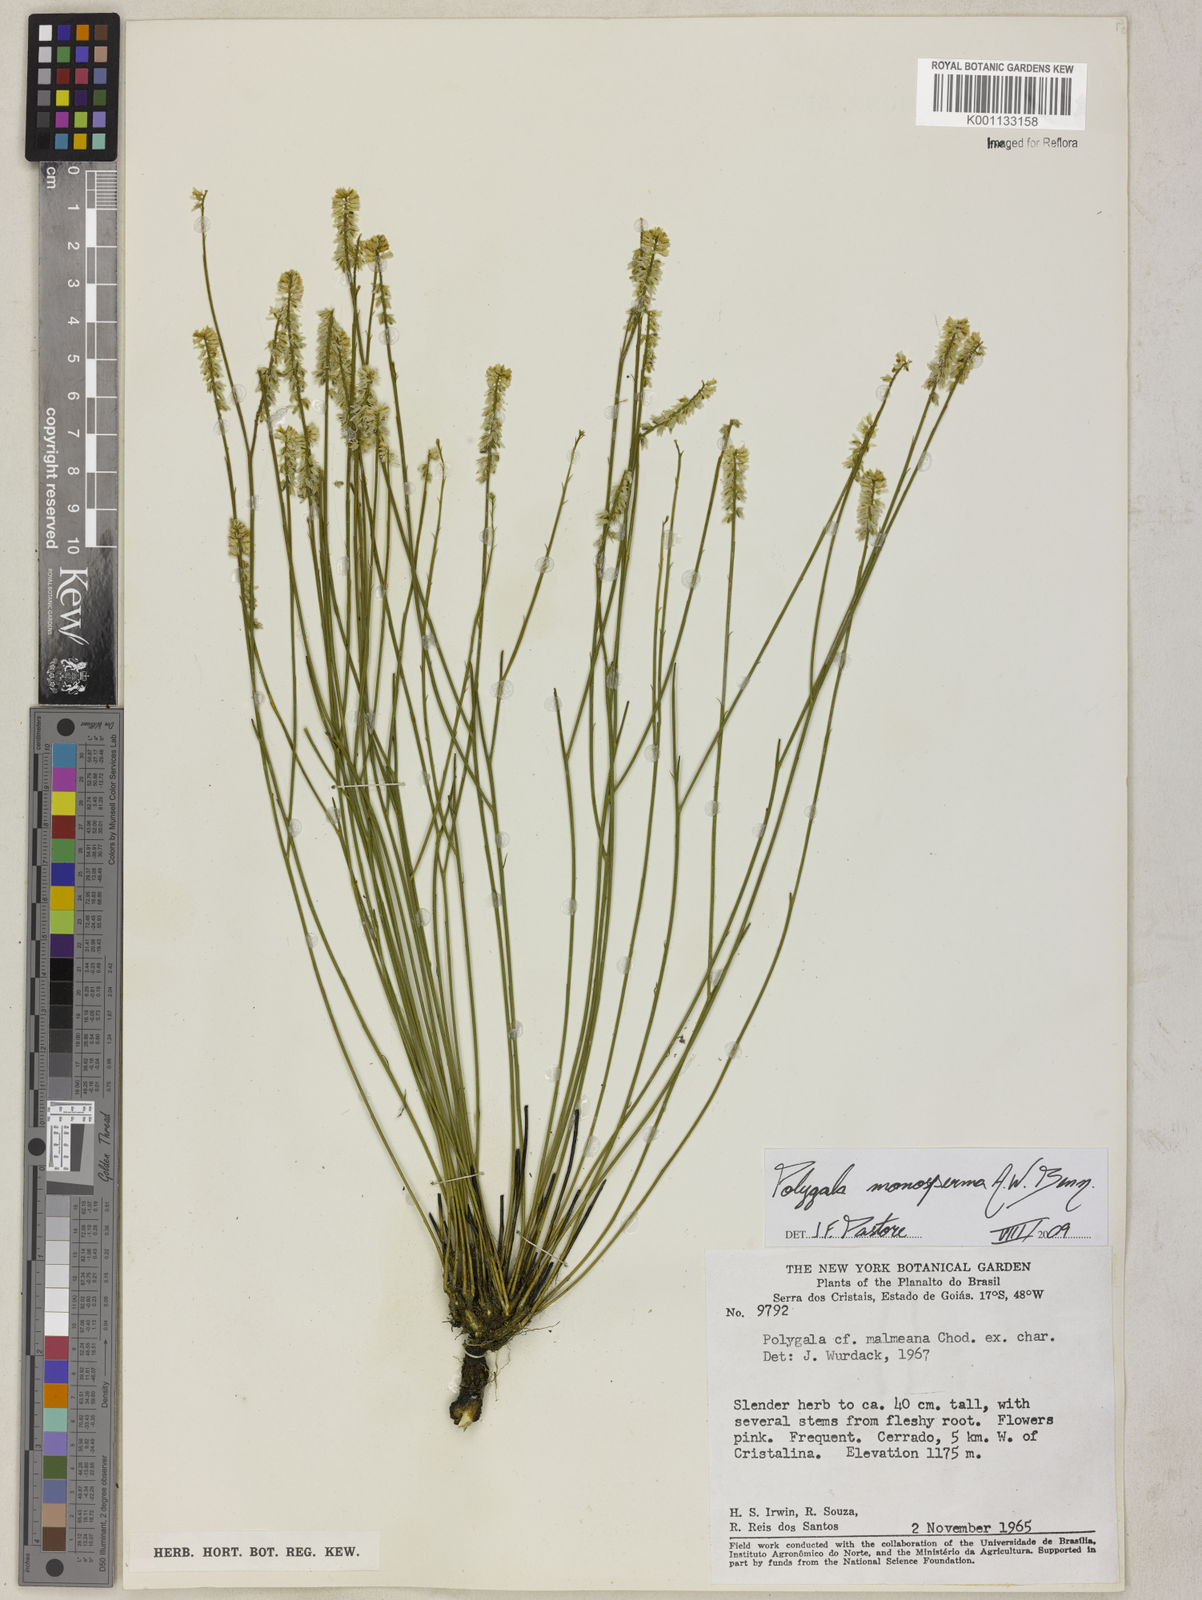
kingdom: Plantae
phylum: Tracheophyta
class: Magnoliopsida
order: Fabales
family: Polygalaceae
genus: Polygala
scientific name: Polygala monosperma
